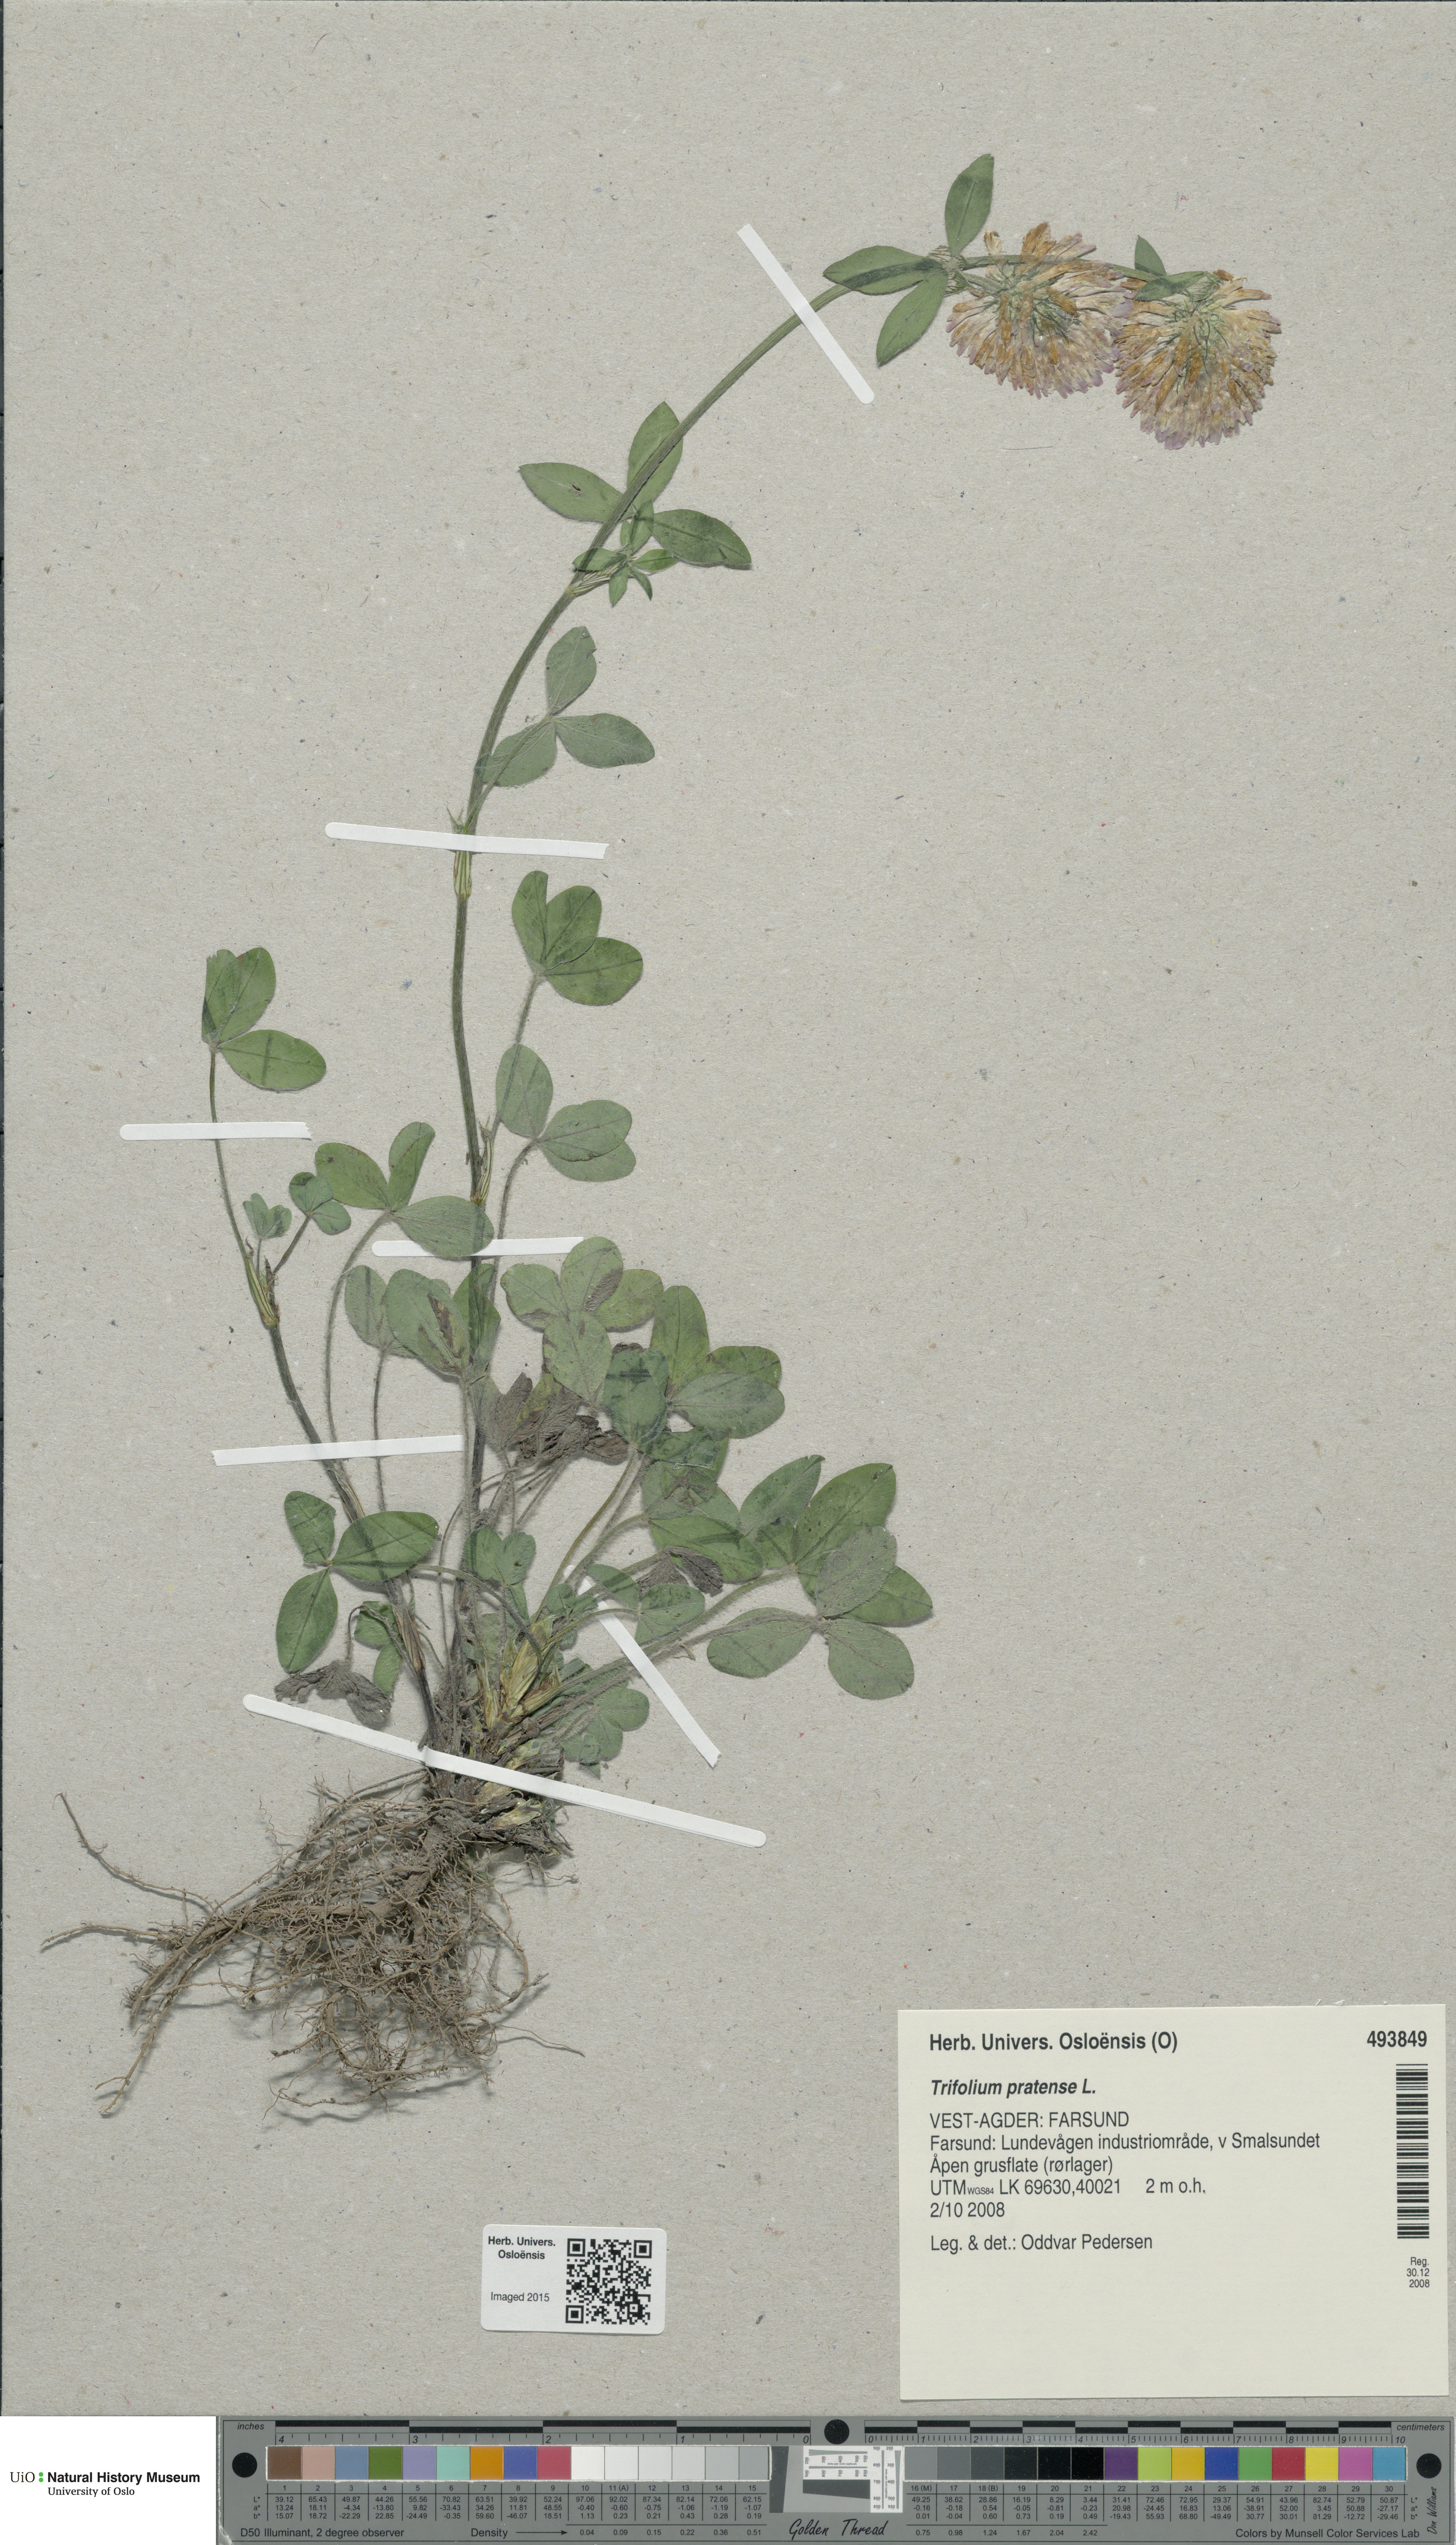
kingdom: Plantae
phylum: Tracheophyta
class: Magnoliopsida
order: Fabales
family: Fabaceae
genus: Trifolium
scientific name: Trifolium pratense
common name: Red clover
